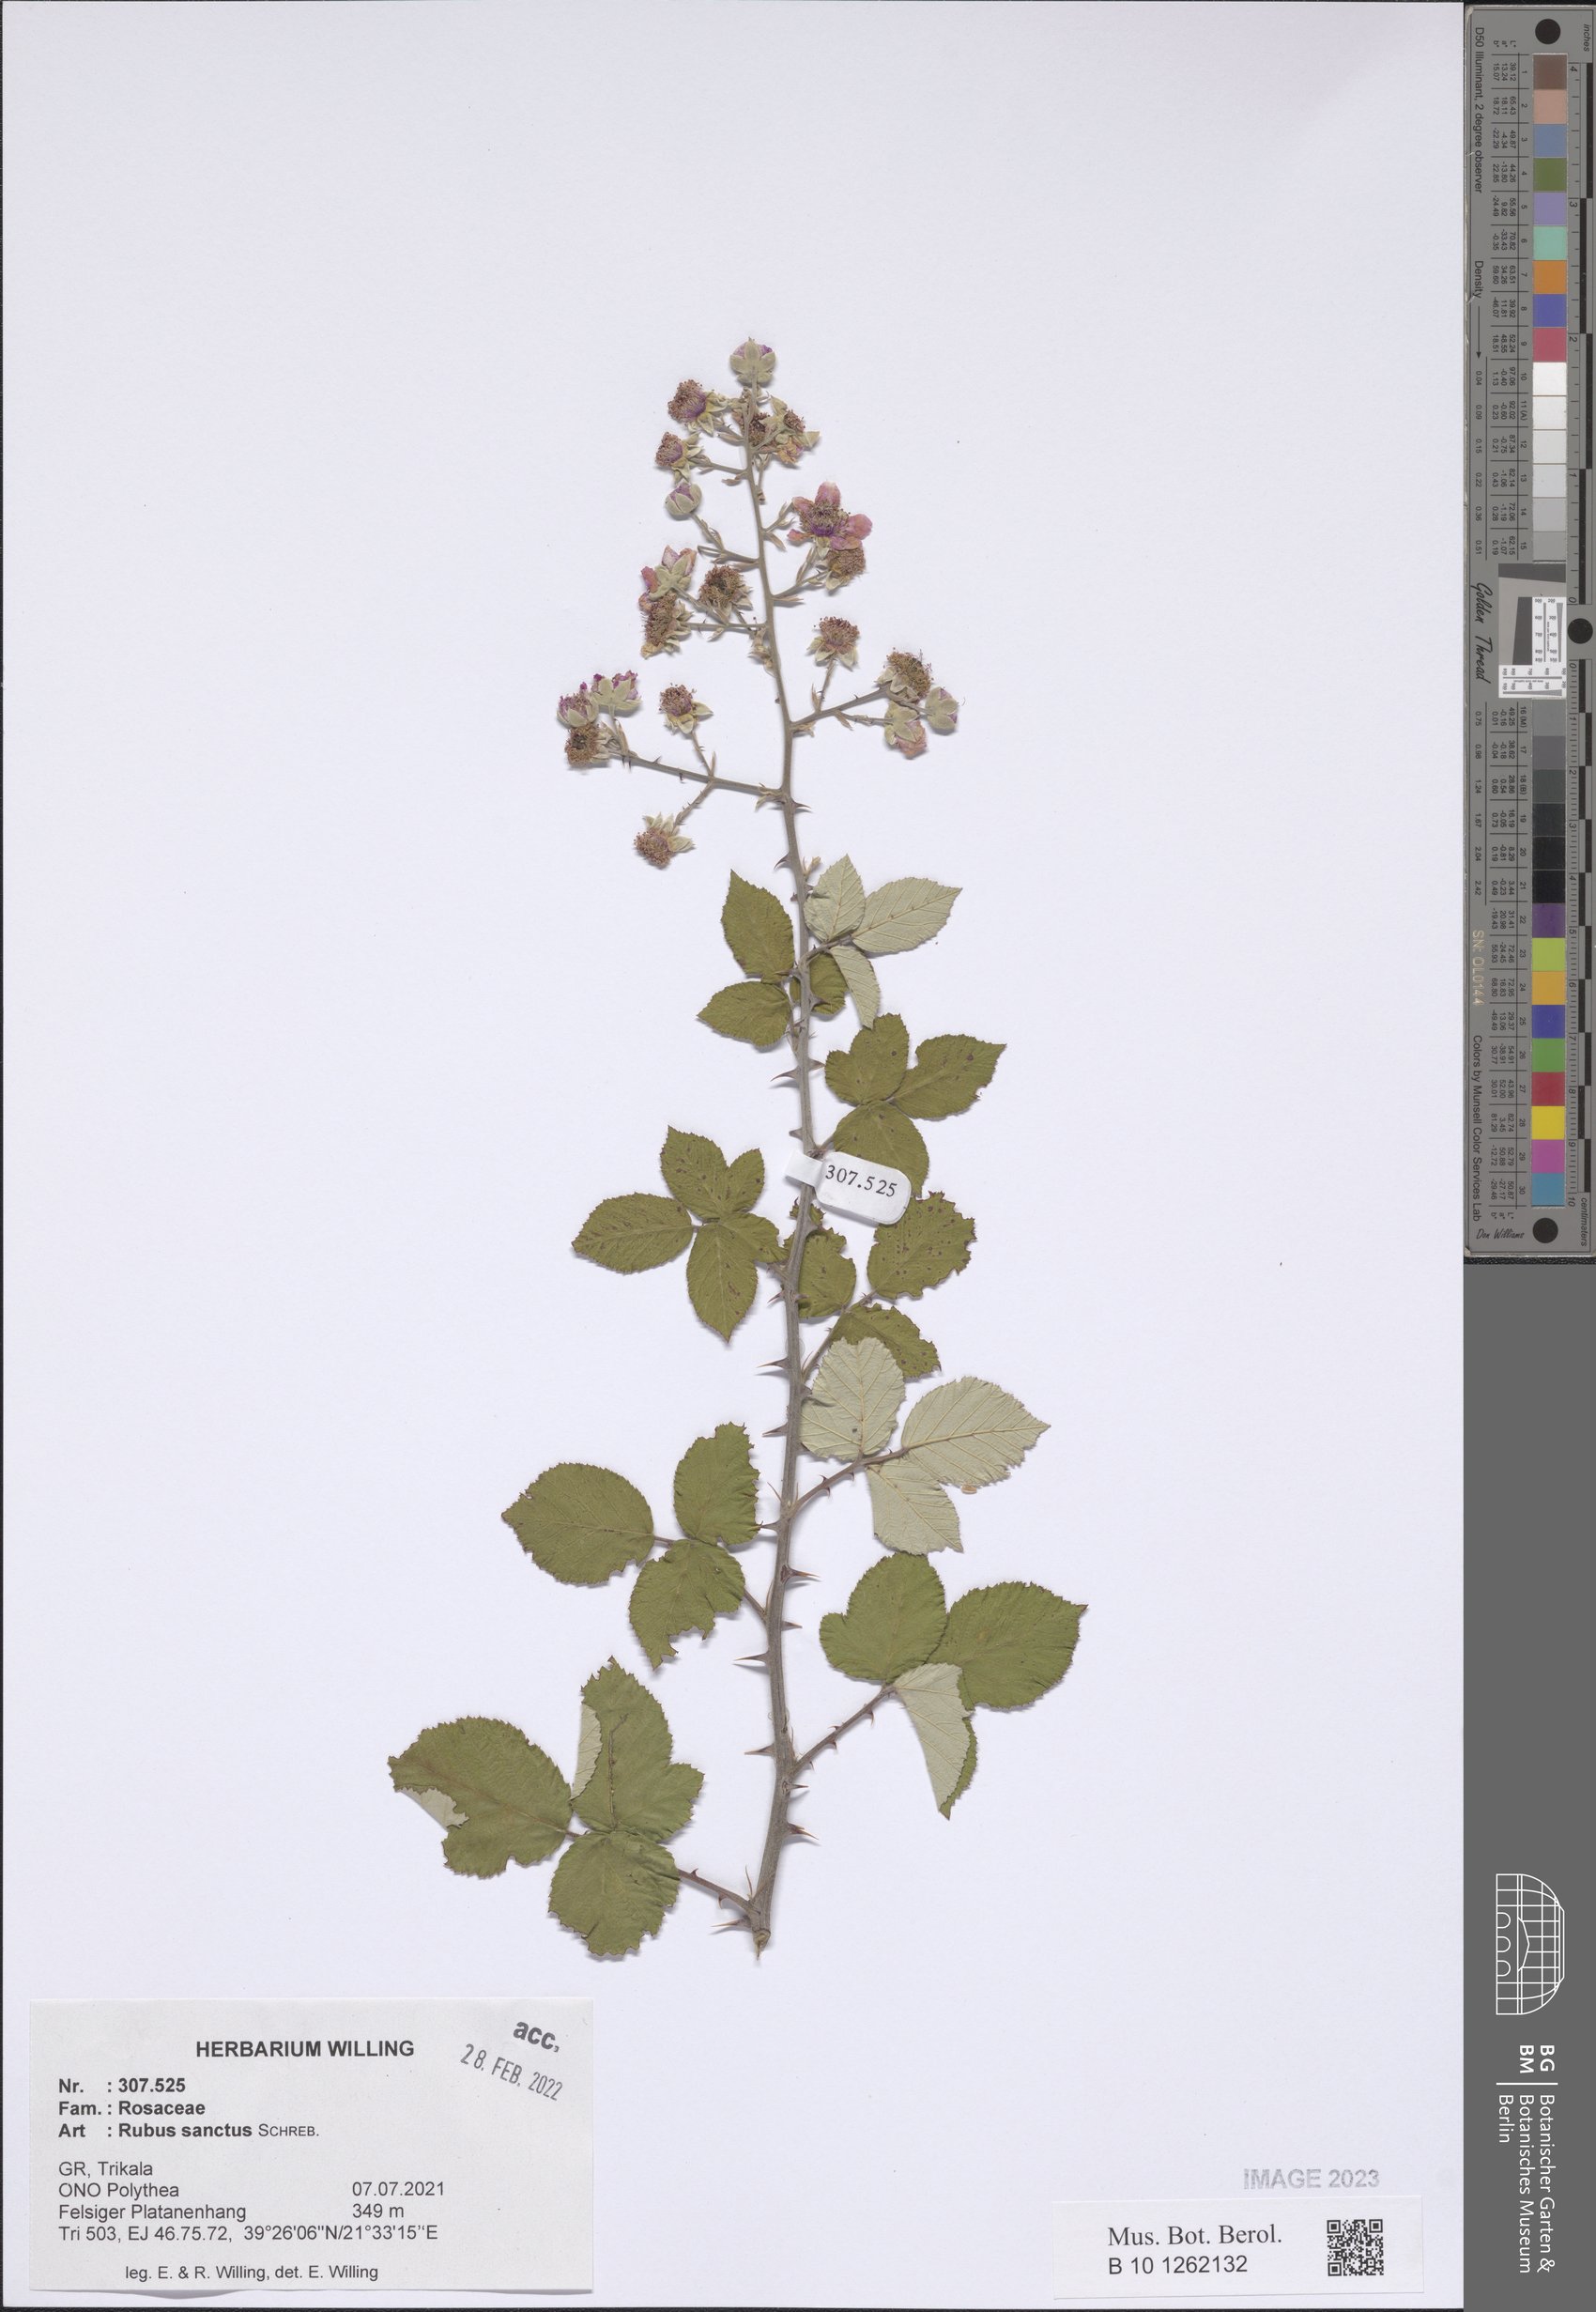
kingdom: Plantae
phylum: Tracheophyta
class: Magnoliopsida
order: Rosales
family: Rosaceae
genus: Rubus
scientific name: Rubus sanctus
